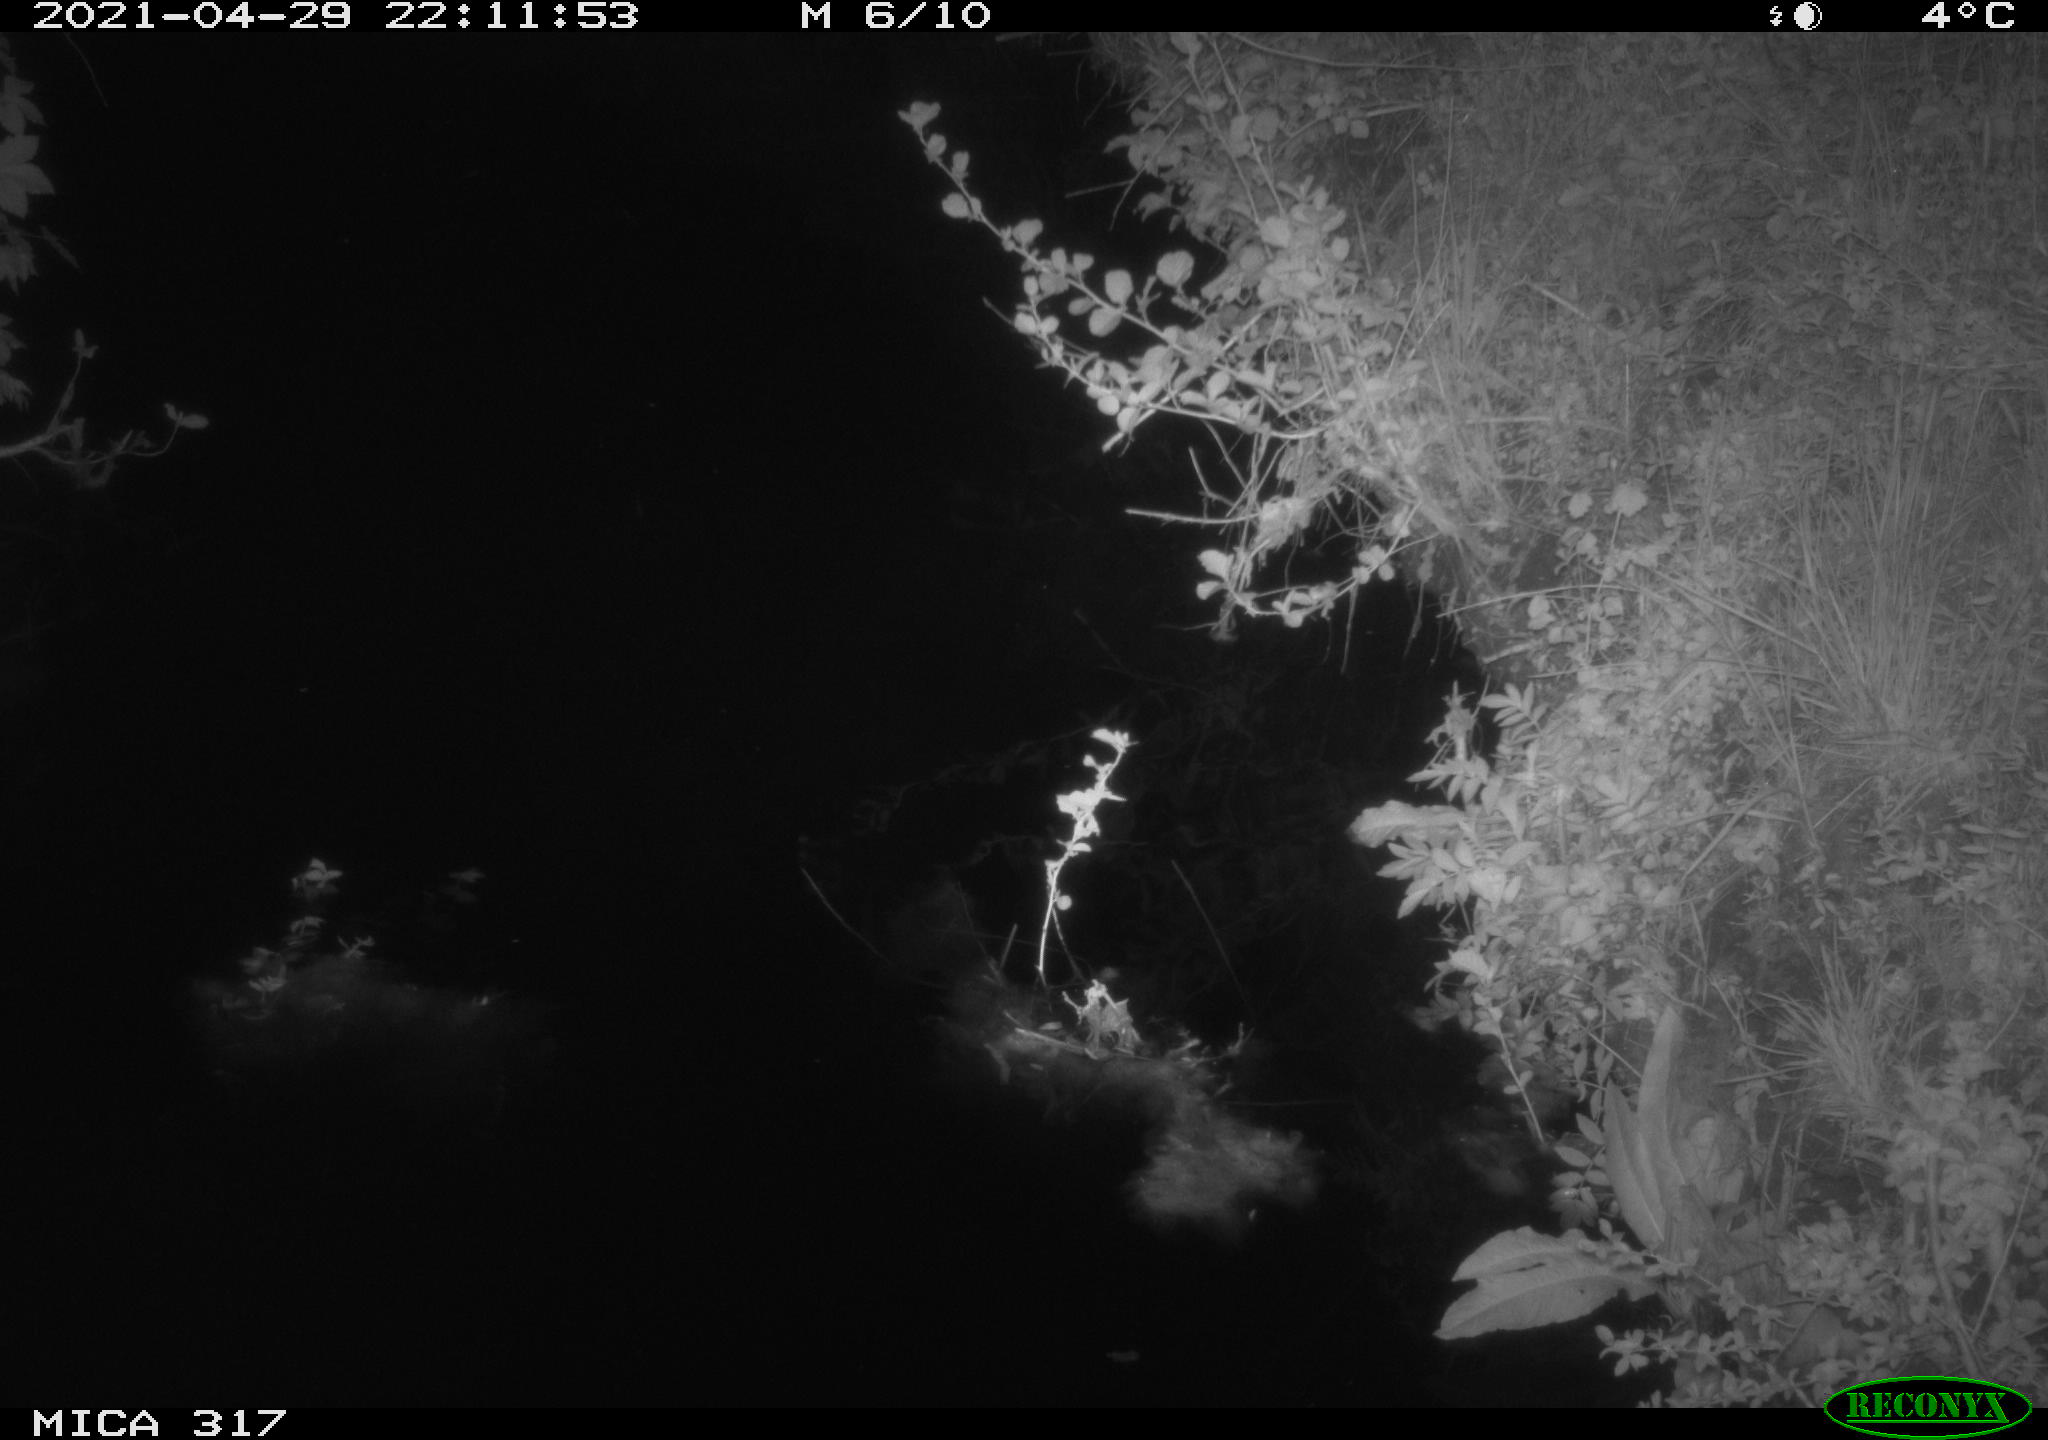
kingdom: Animalia
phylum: Chordata
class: Aves
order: Anseriformes
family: Anatidae
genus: Anas
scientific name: Anas
